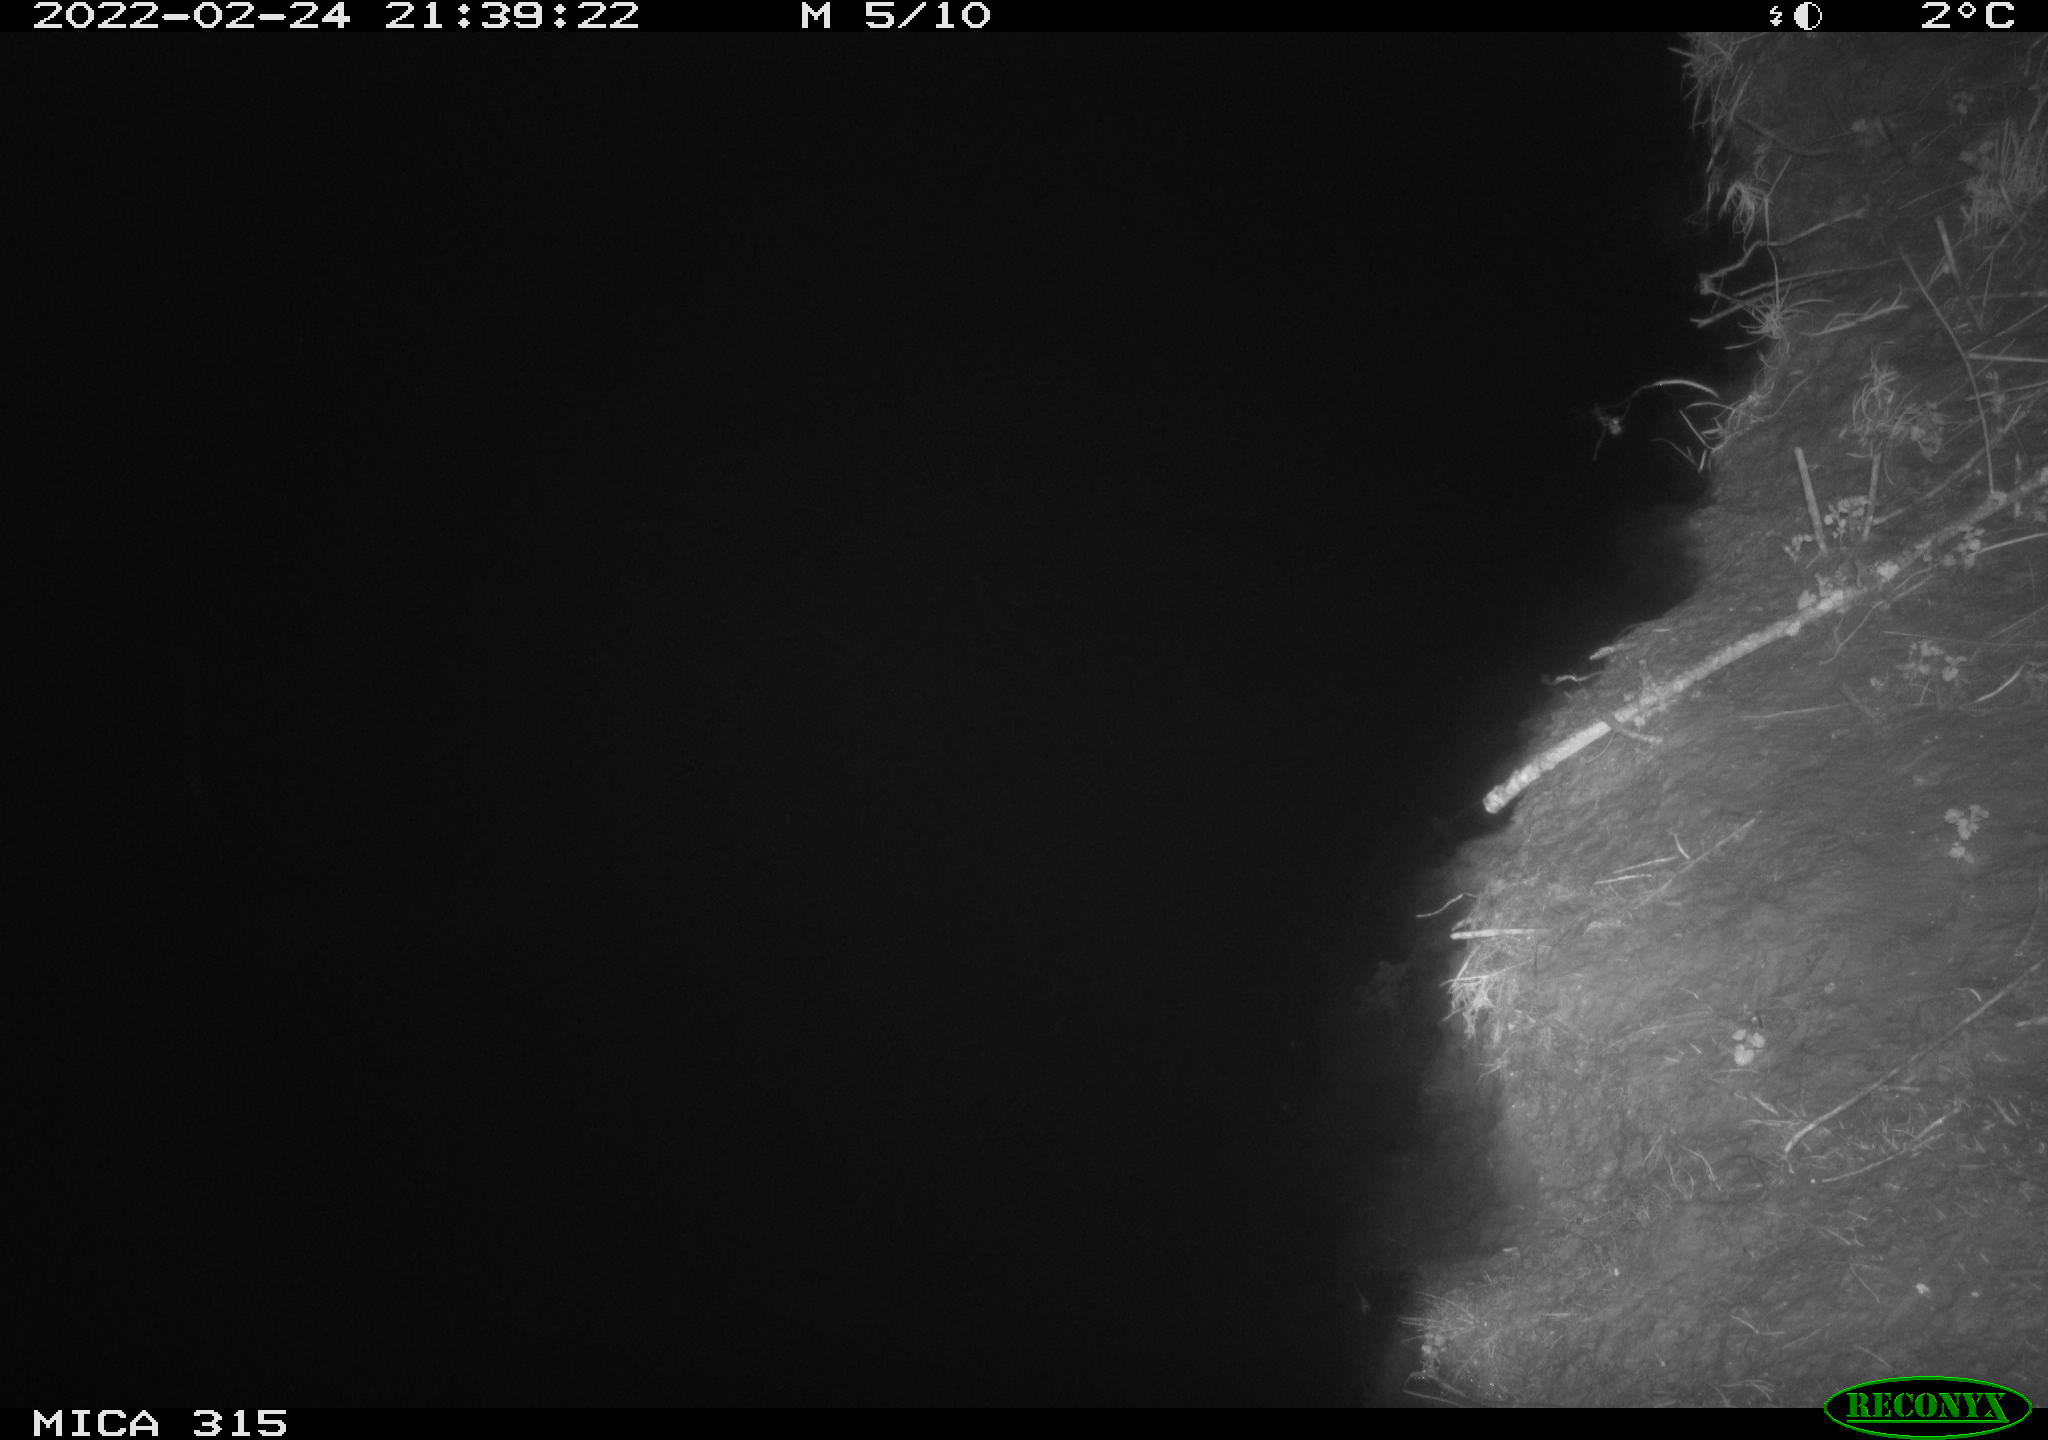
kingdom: Animalia
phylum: Chordata
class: Mammalia
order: Rodentia
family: Muridae
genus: Rattus
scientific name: Rattus norvegicus
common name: Brown rat
